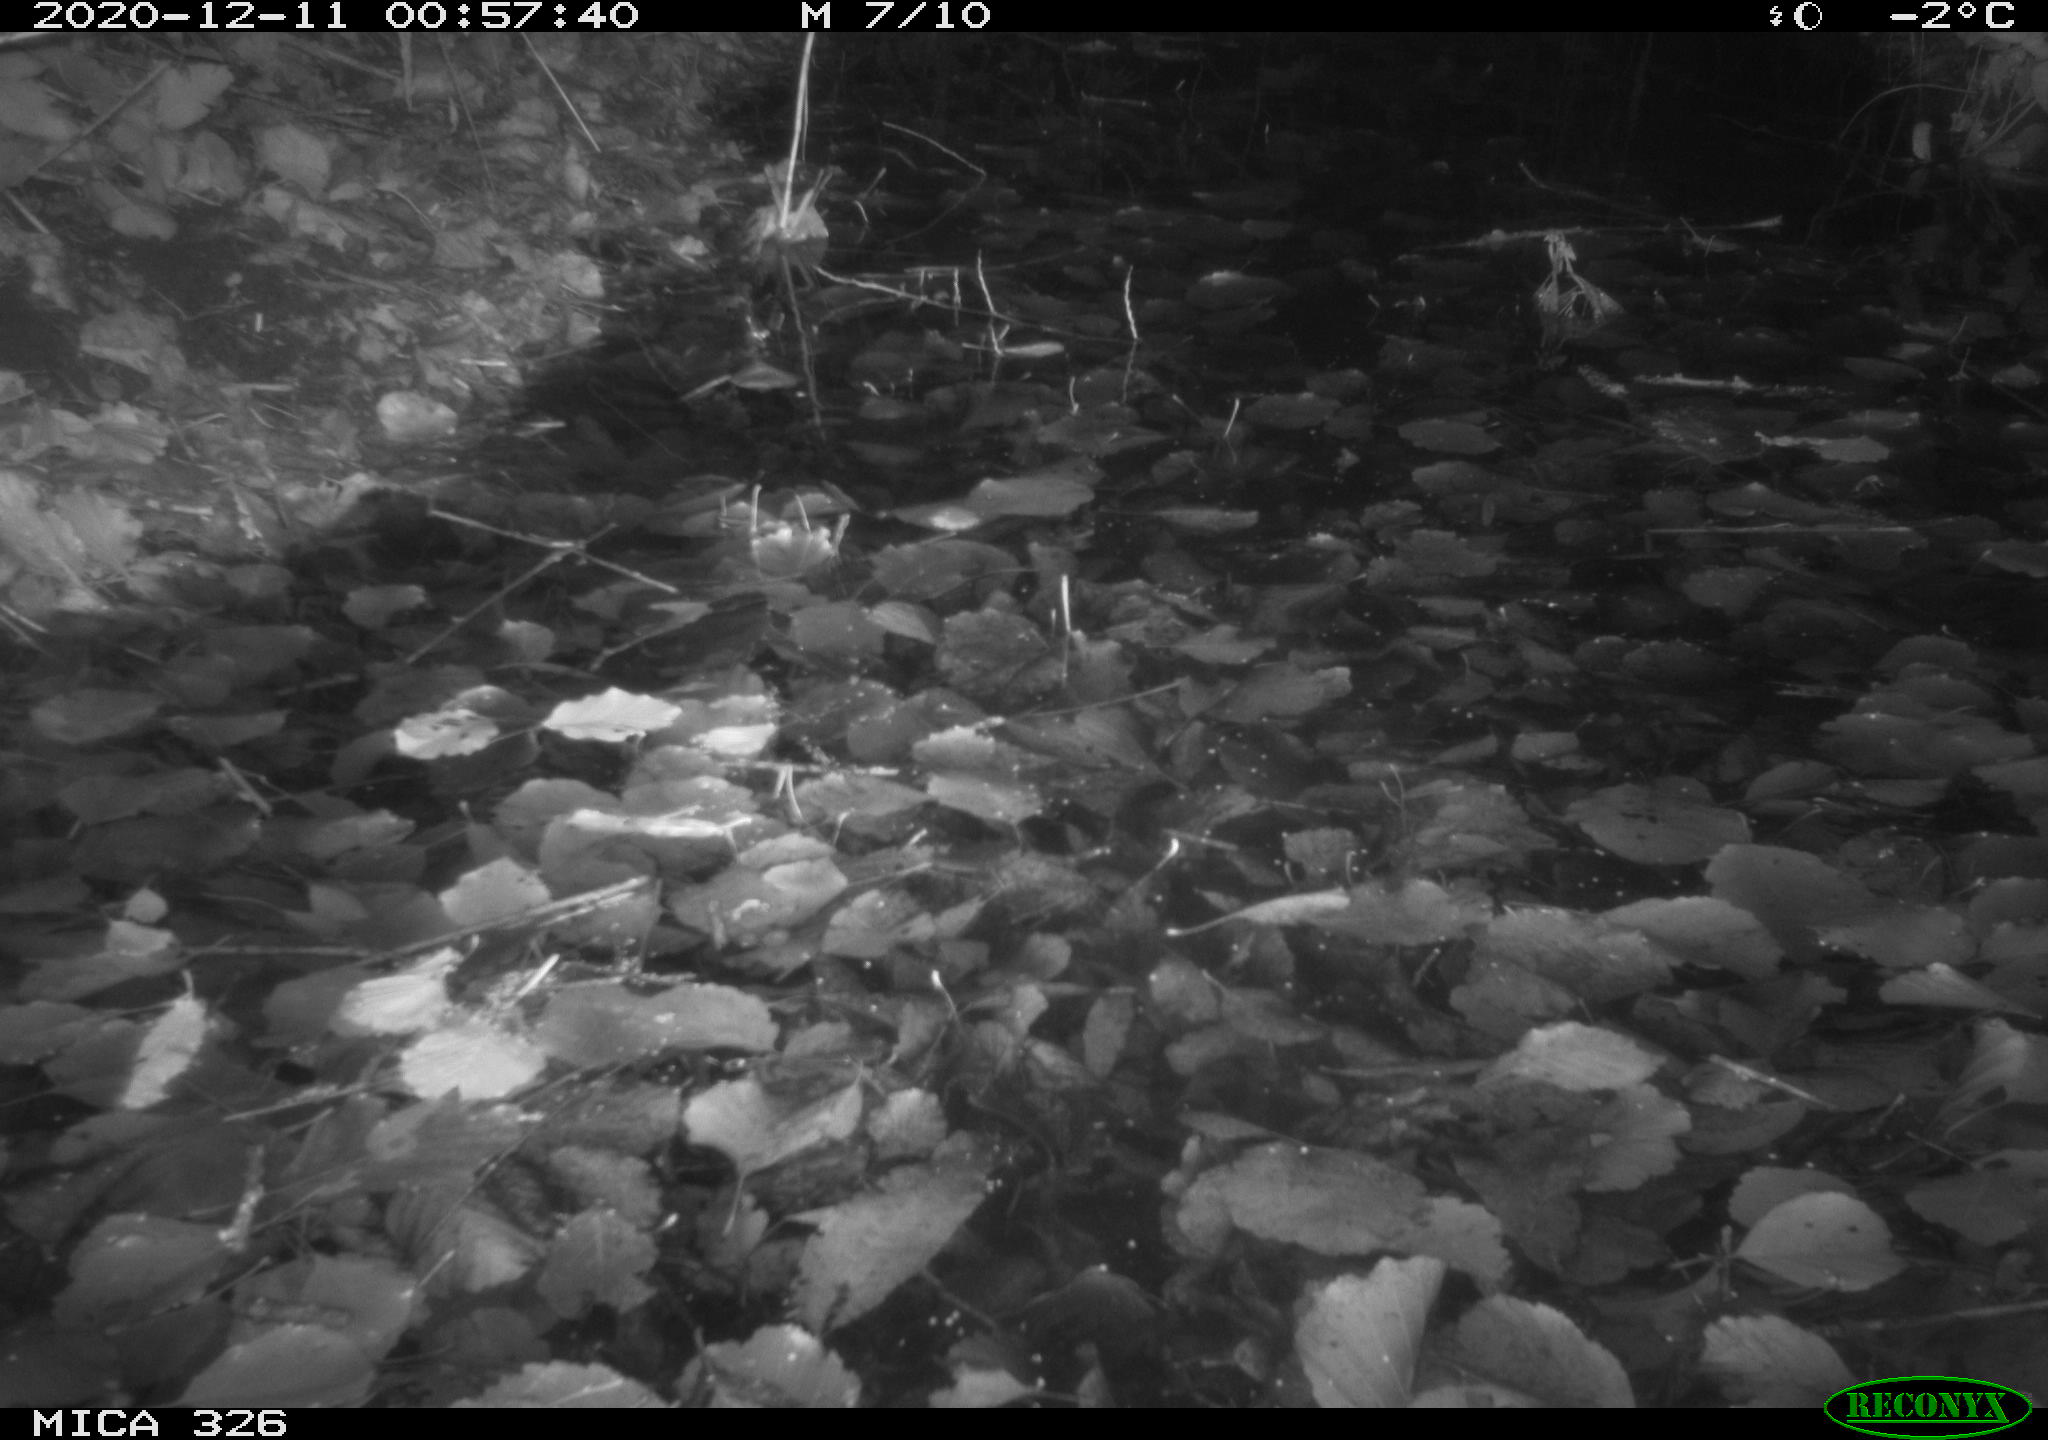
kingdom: Animalia
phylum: Chordata
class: Mammalia
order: Rodentia
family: Cricetidae
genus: Ondatra
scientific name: Ondatra zibethicus
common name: Muskrat
